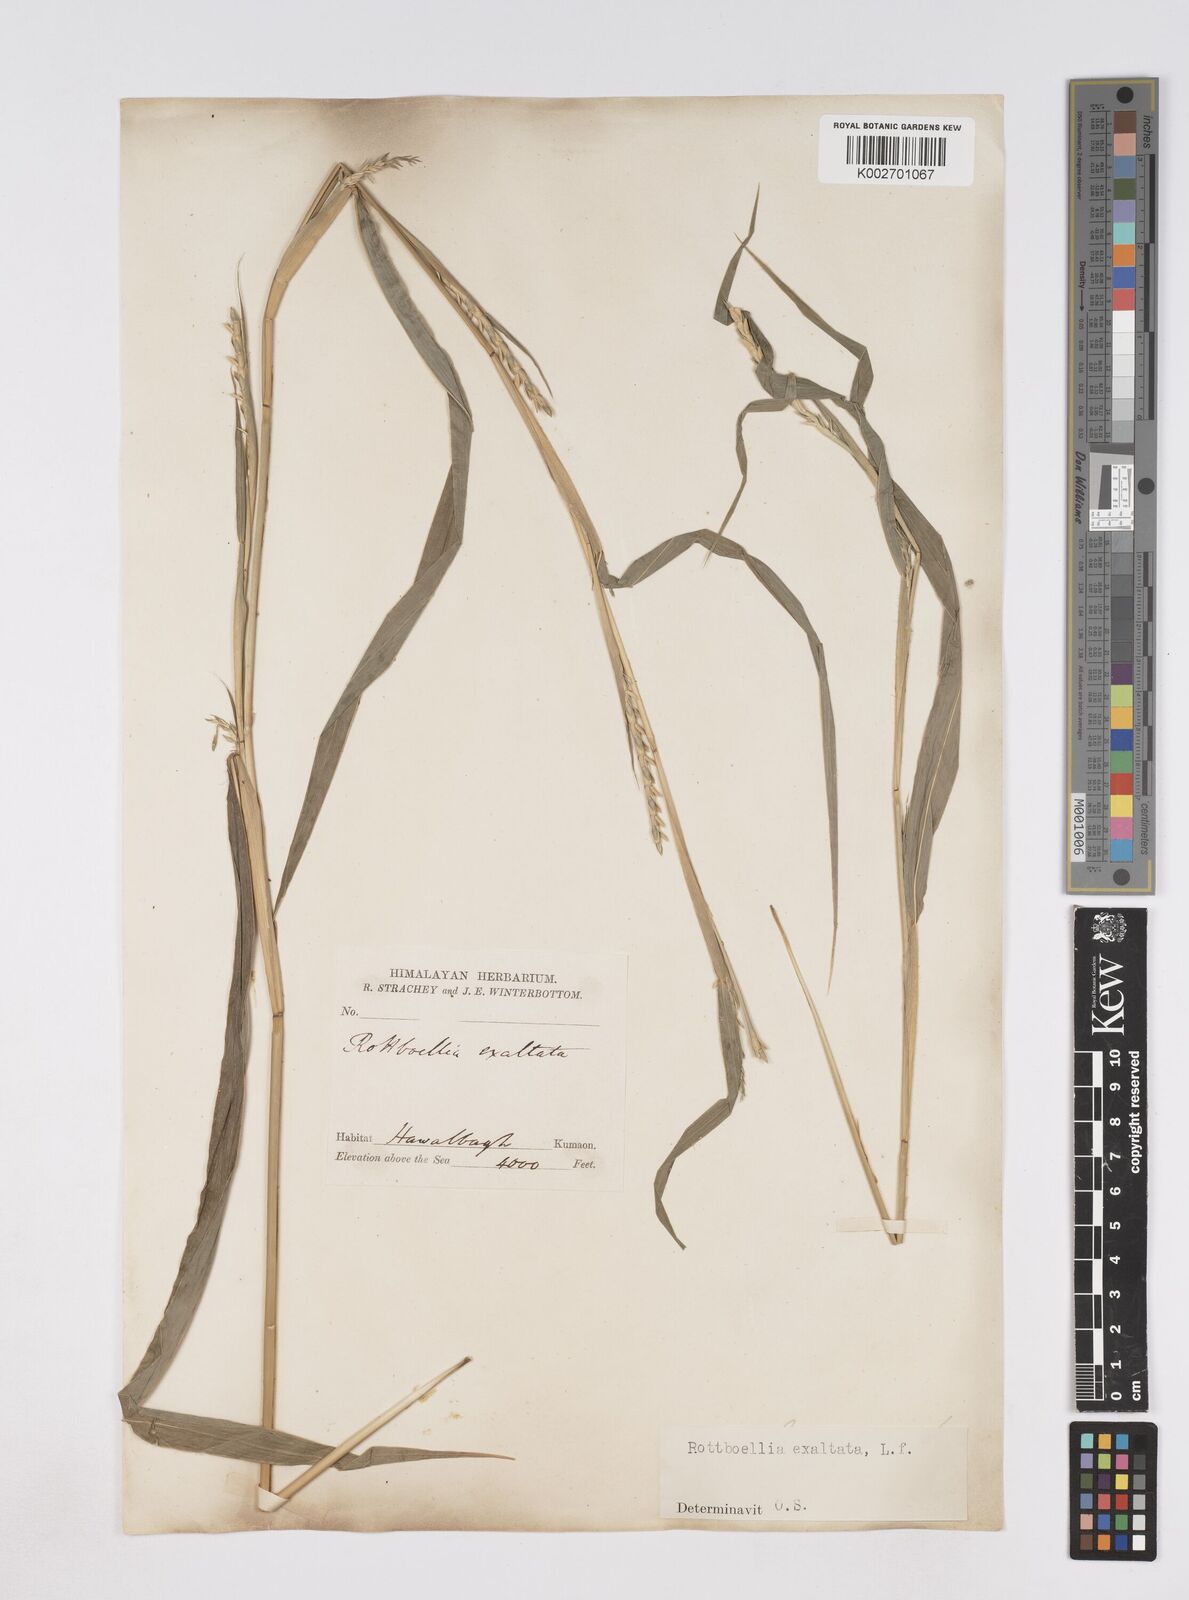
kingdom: Plantae
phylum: Tracheophyta
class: Liliopsida
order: Poales
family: Poaceae
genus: Ophiuros
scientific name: Ophiuros exaltatus
